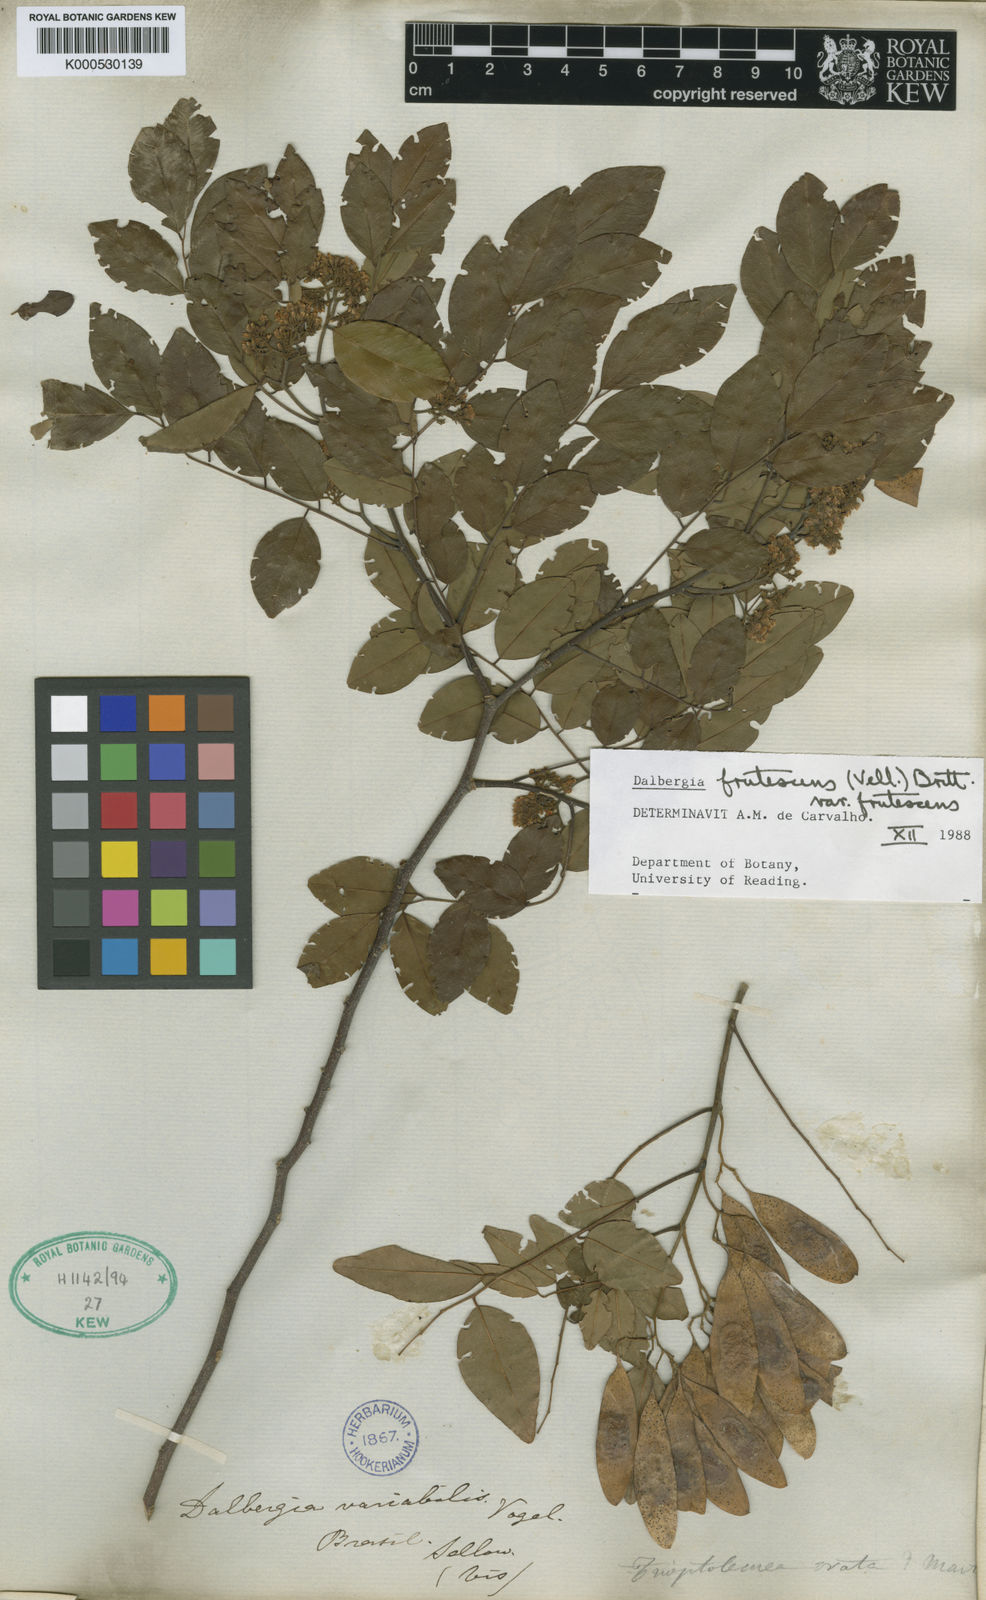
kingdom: Plantae
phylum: Tracheophyta
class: Magnoliopsida
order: Fabales
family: Fabaceae
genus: Dalbergia
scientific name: Dalbergia frutescens
